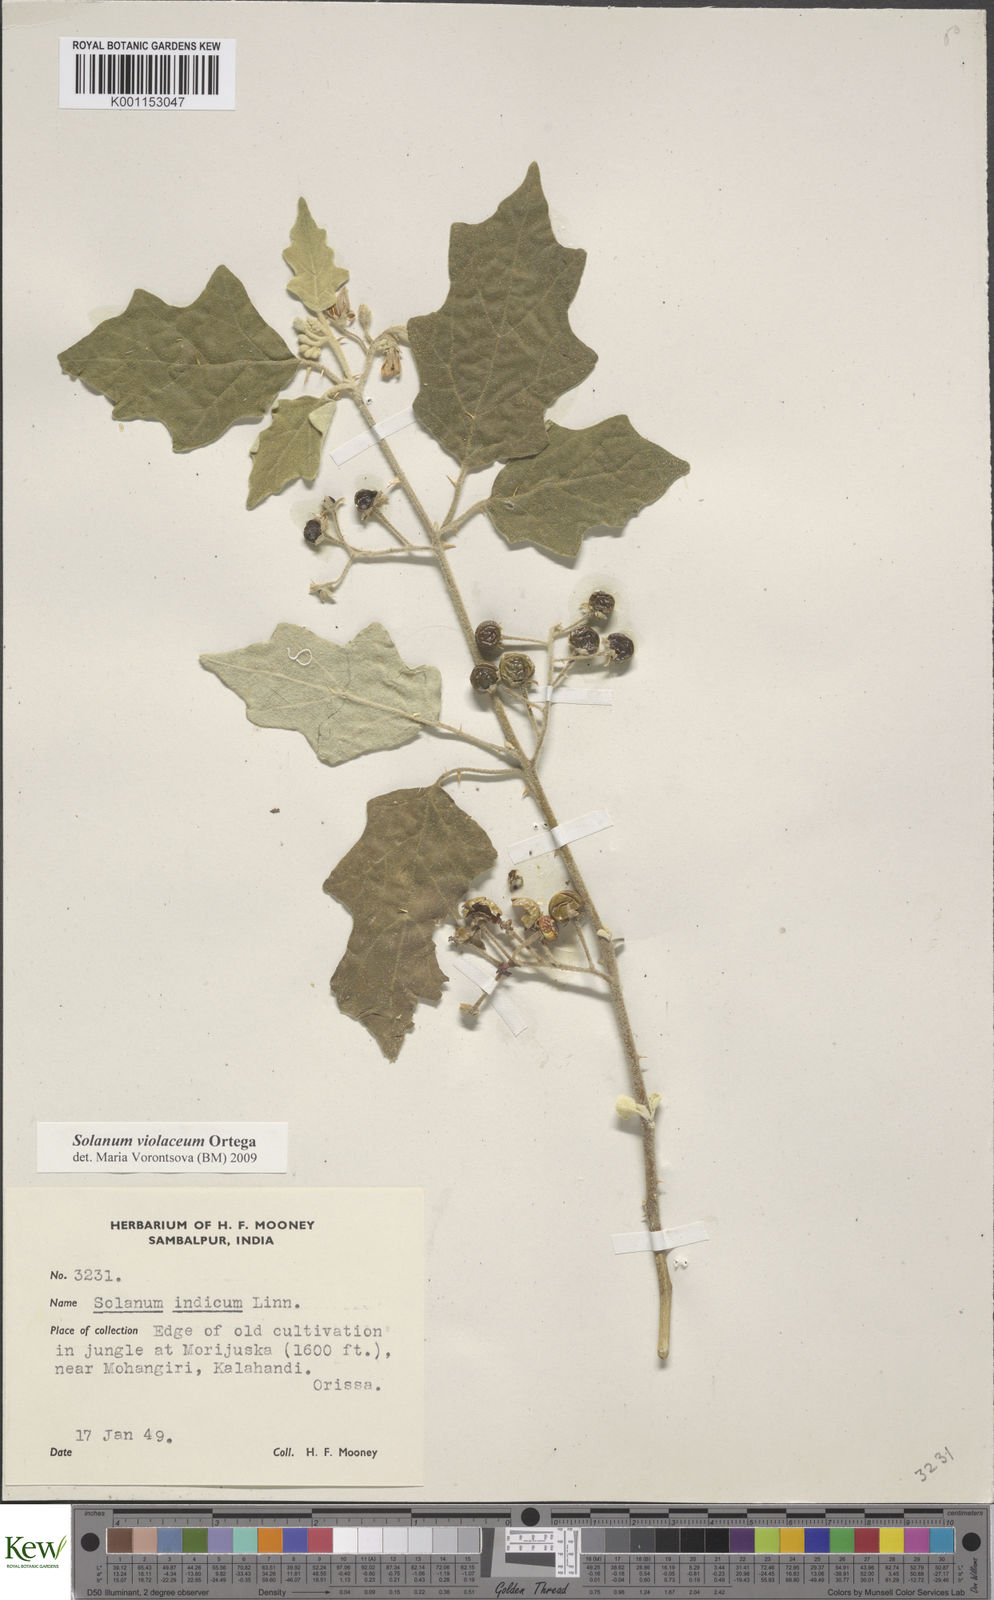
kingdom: Plantae
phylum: Tracheophyta
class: Magnoliopsida
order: Solanales
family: Solanaceae
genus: Solanum
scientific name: Solanum violaceum
